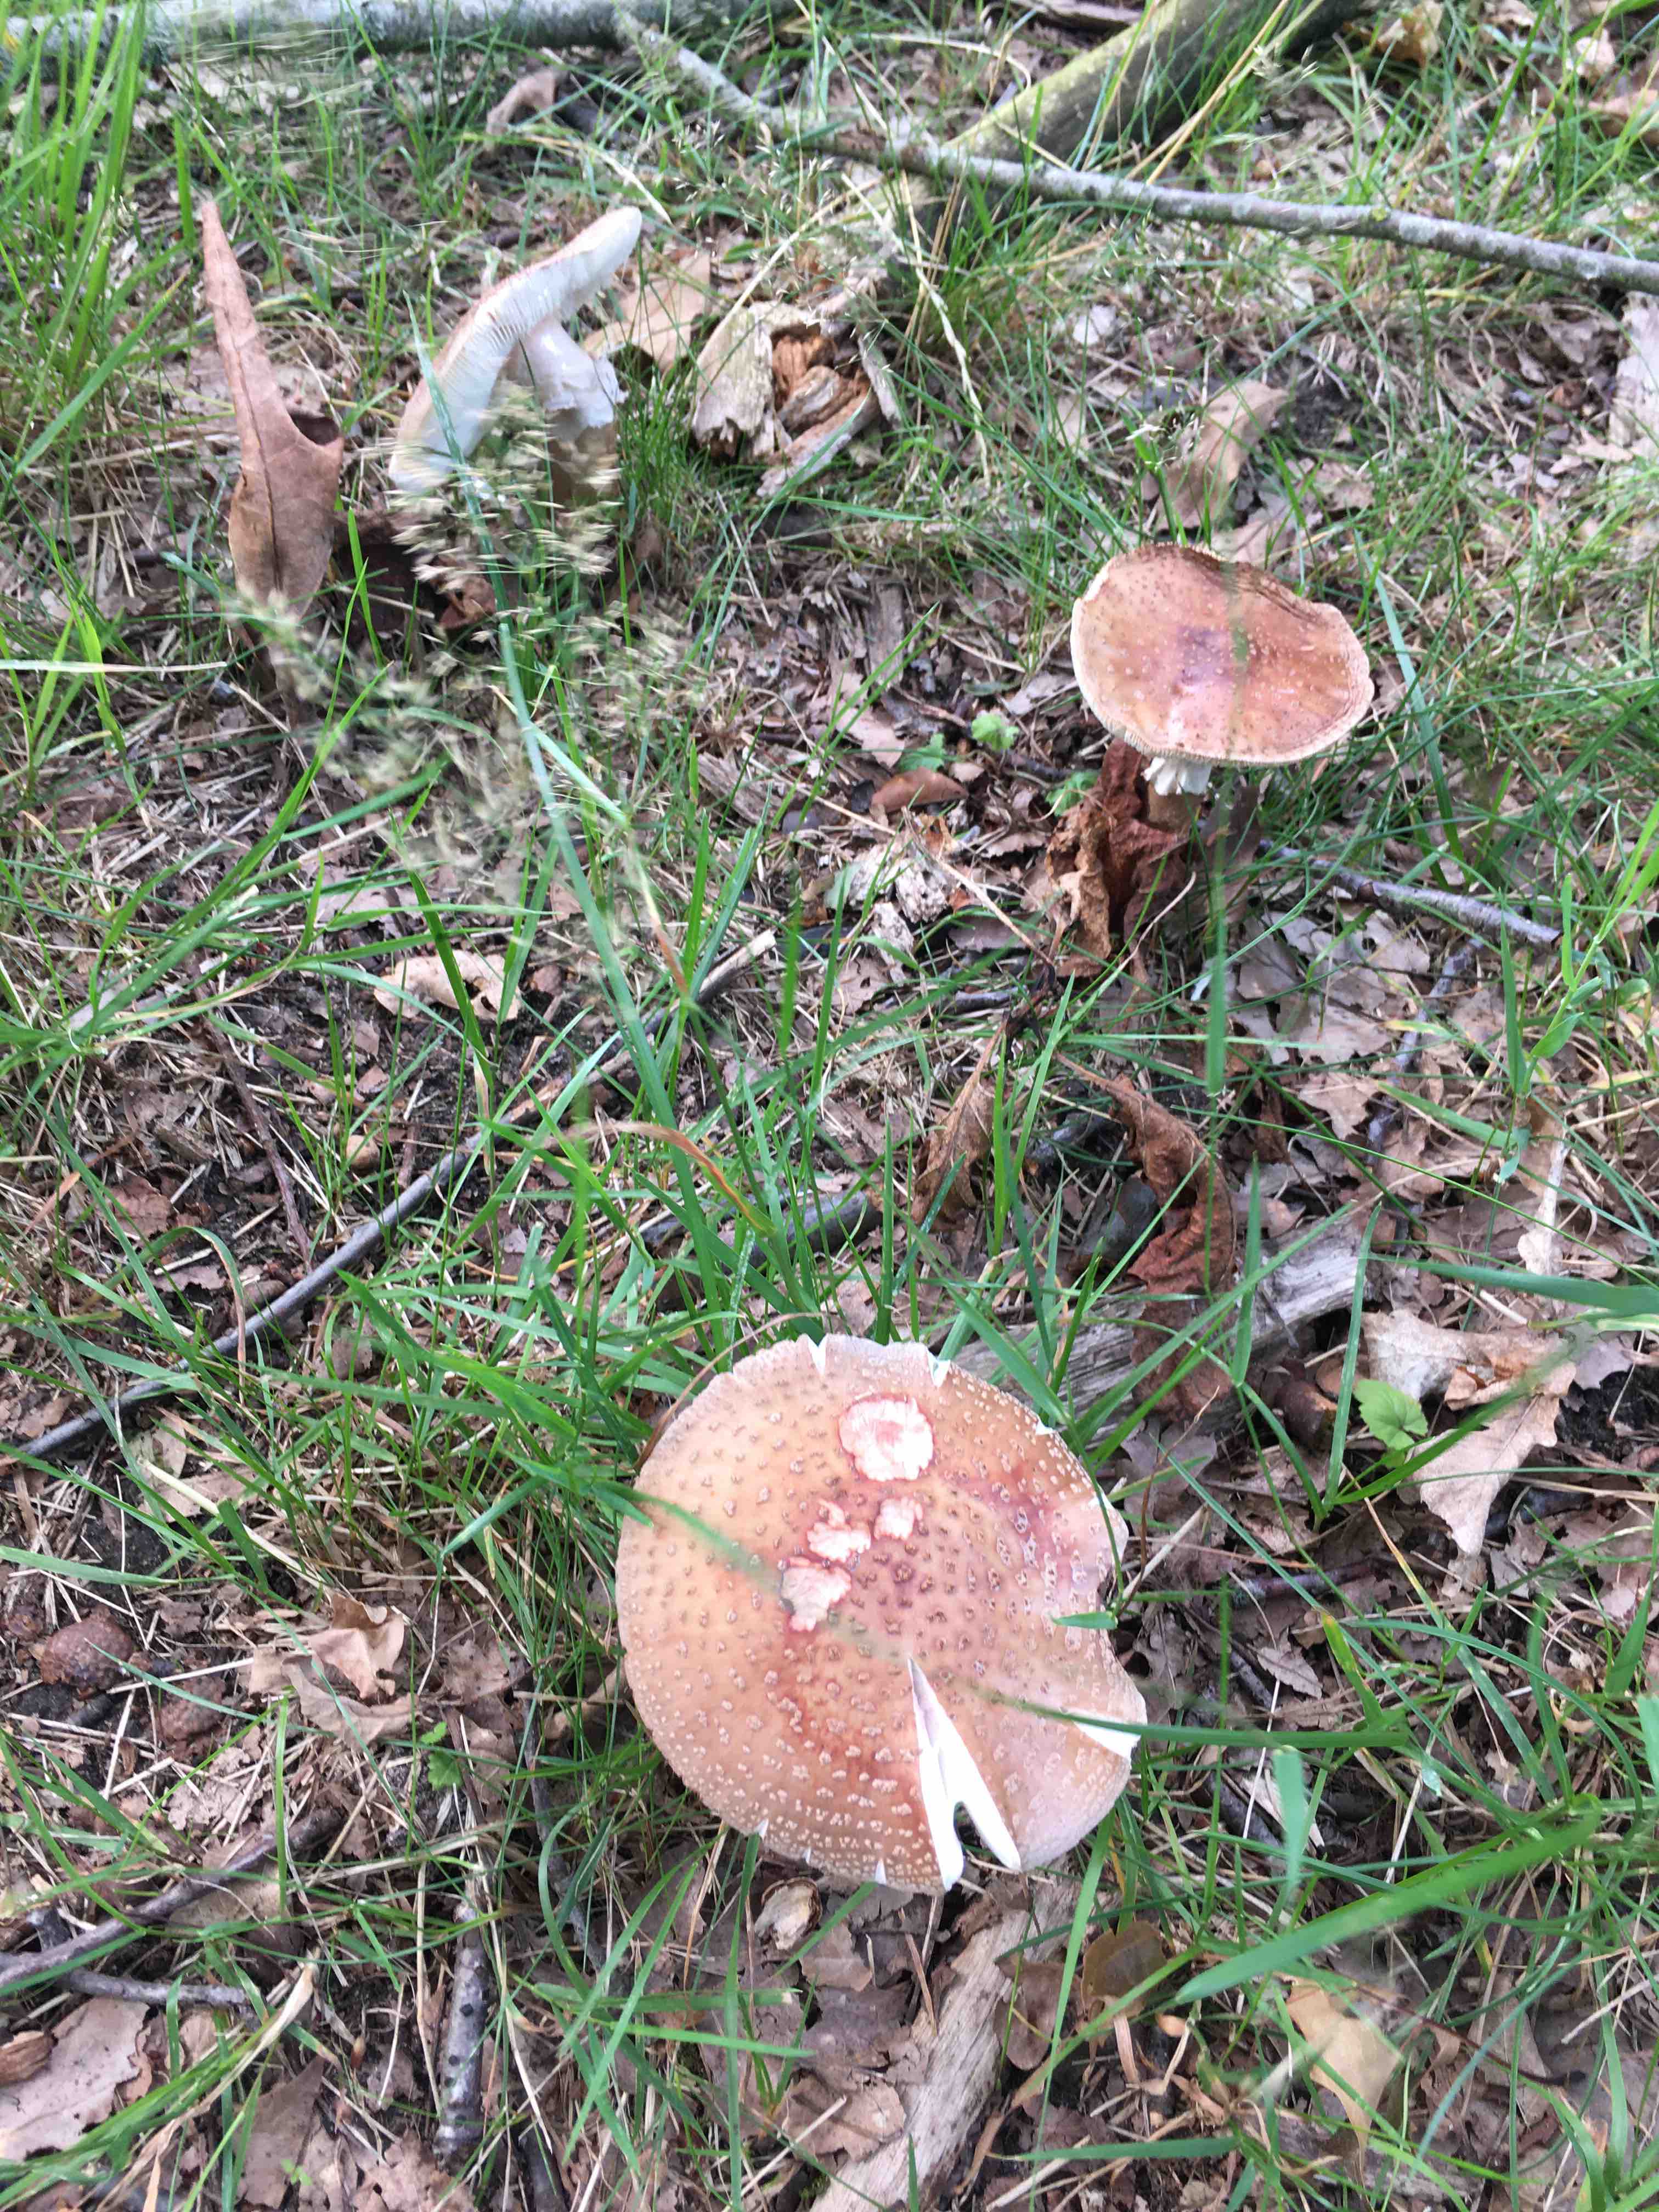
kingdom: Fungi
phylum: Basidiomycota
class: Agaricomycetes
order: Agaricales
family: Amanitaceae
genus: Amanita
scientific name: Amanita rubescens
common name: rødmende fluesvamp
